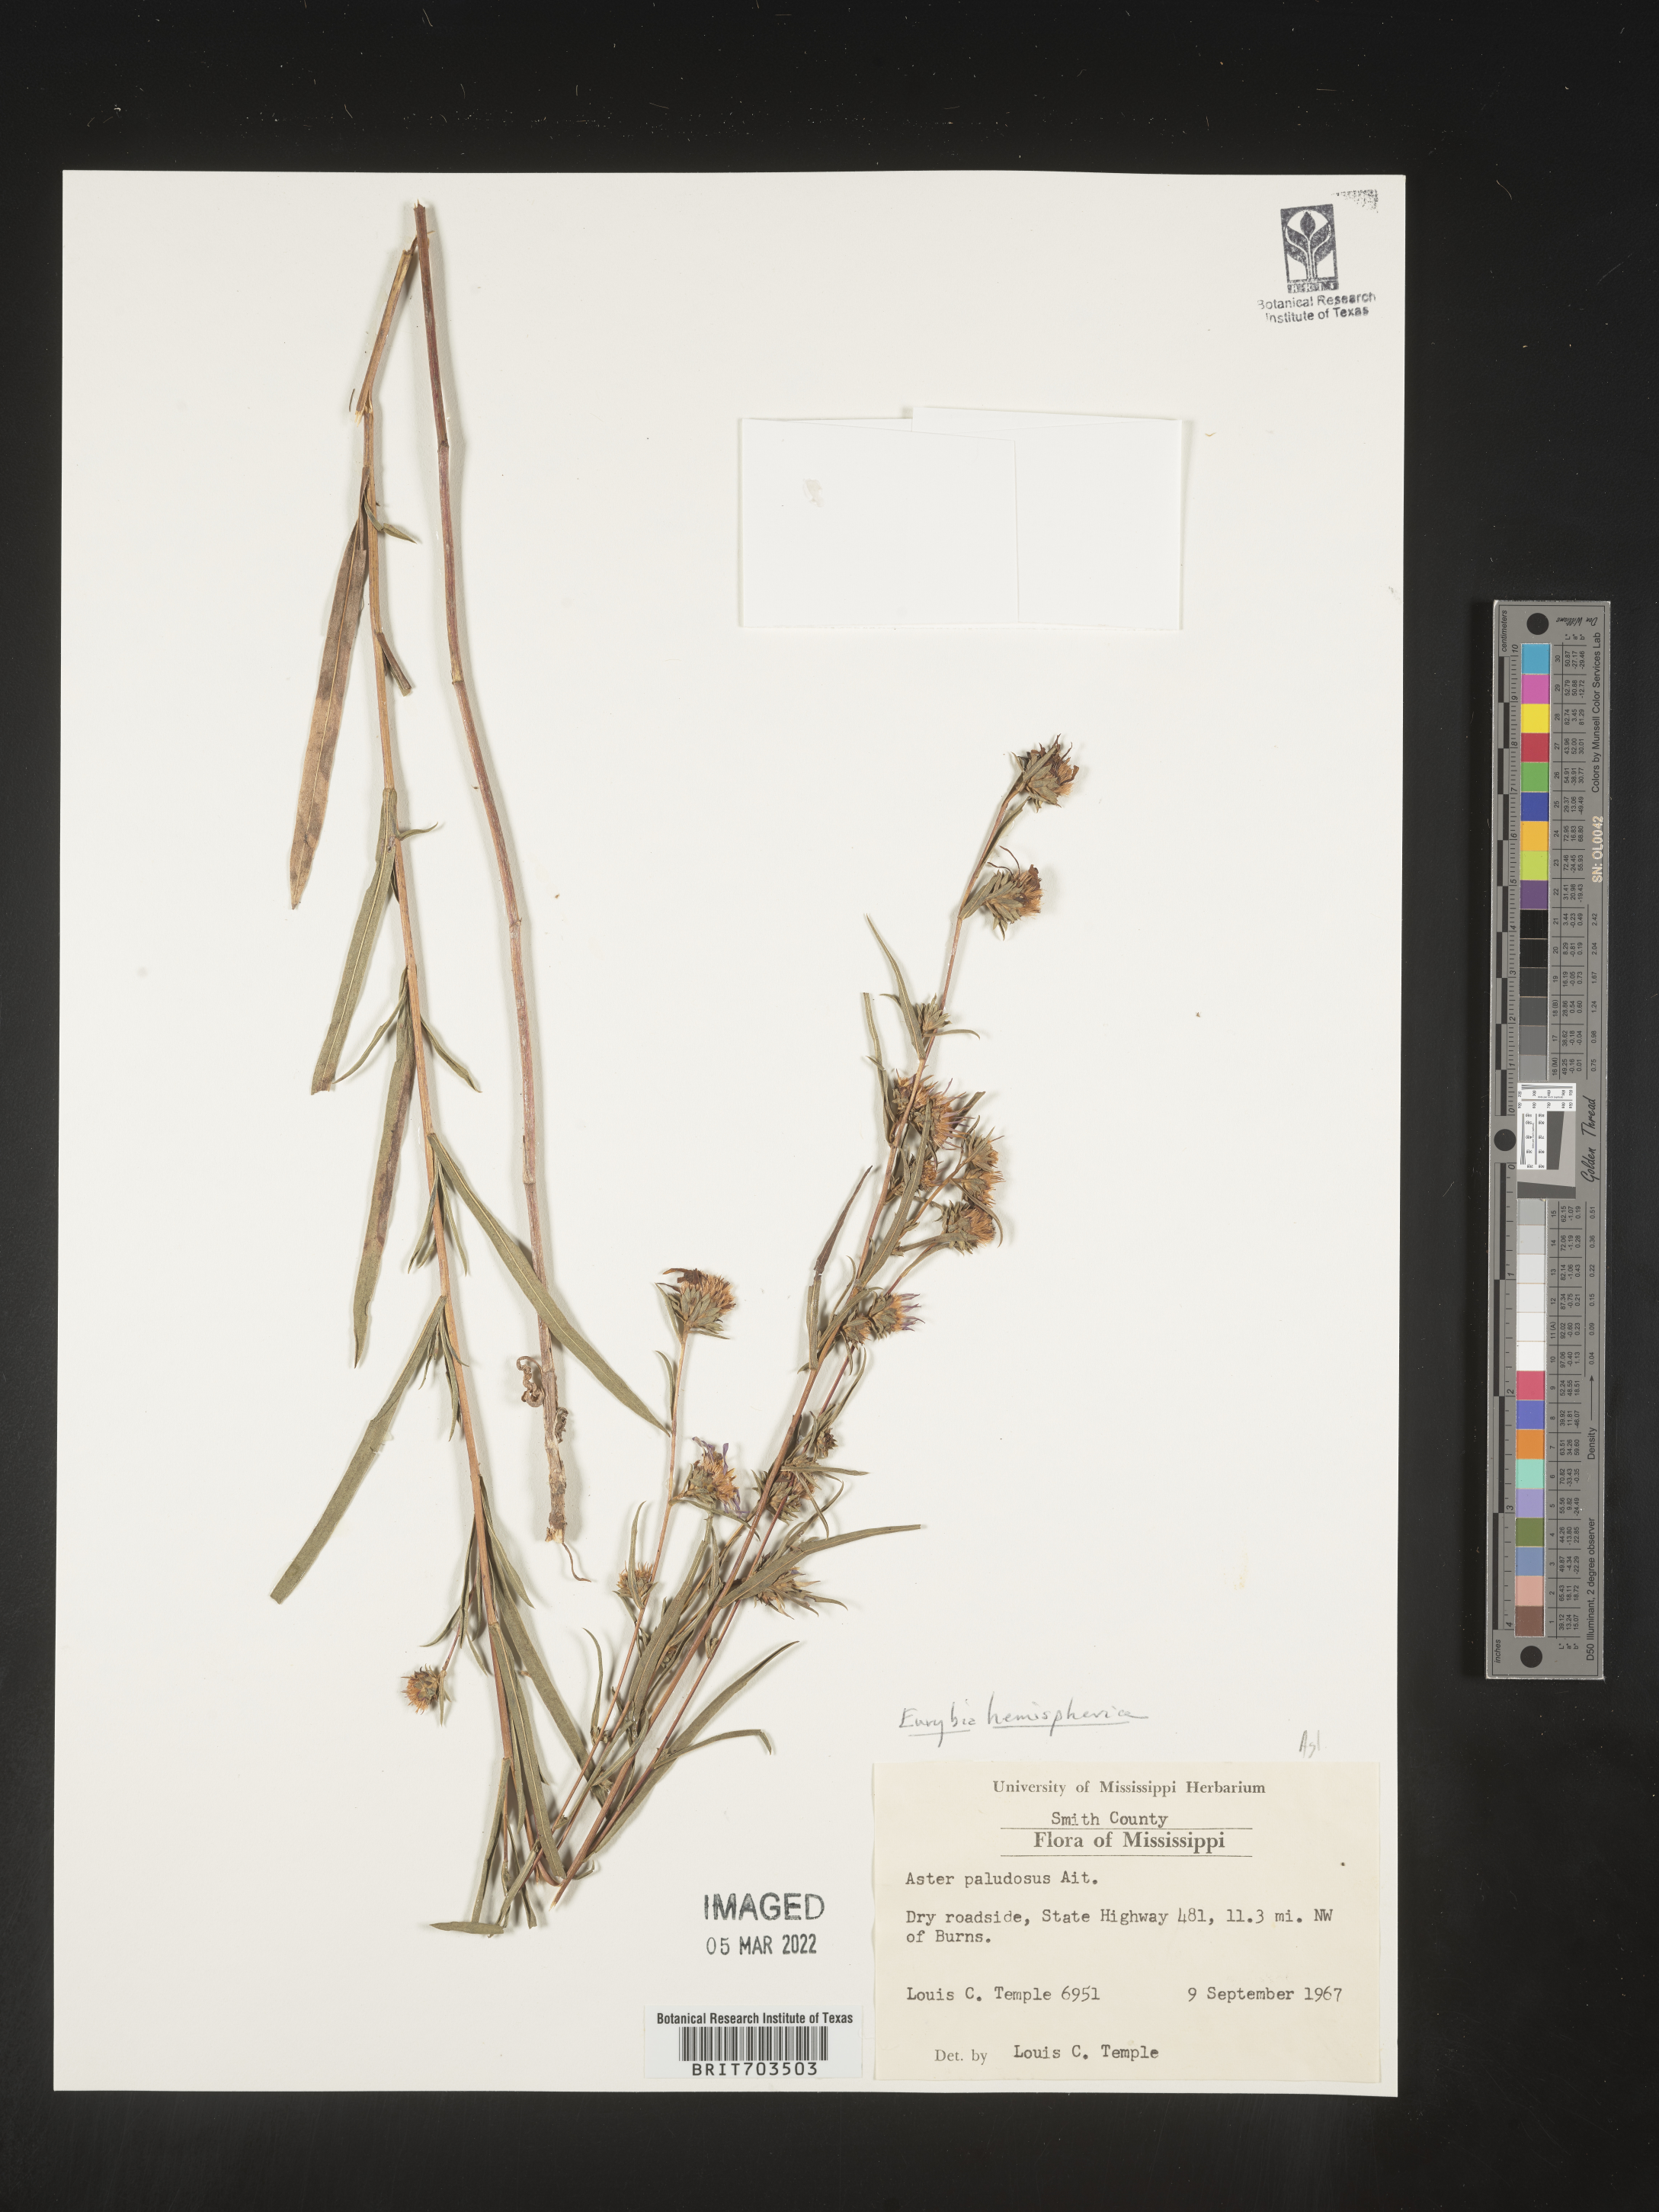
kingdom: Plantae
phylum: Tracheophyta
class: Magnoliopsida
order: Asterales
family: Asteraceae
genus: Eurybia
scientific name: Eurybia hemispherica
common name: Showy aster
